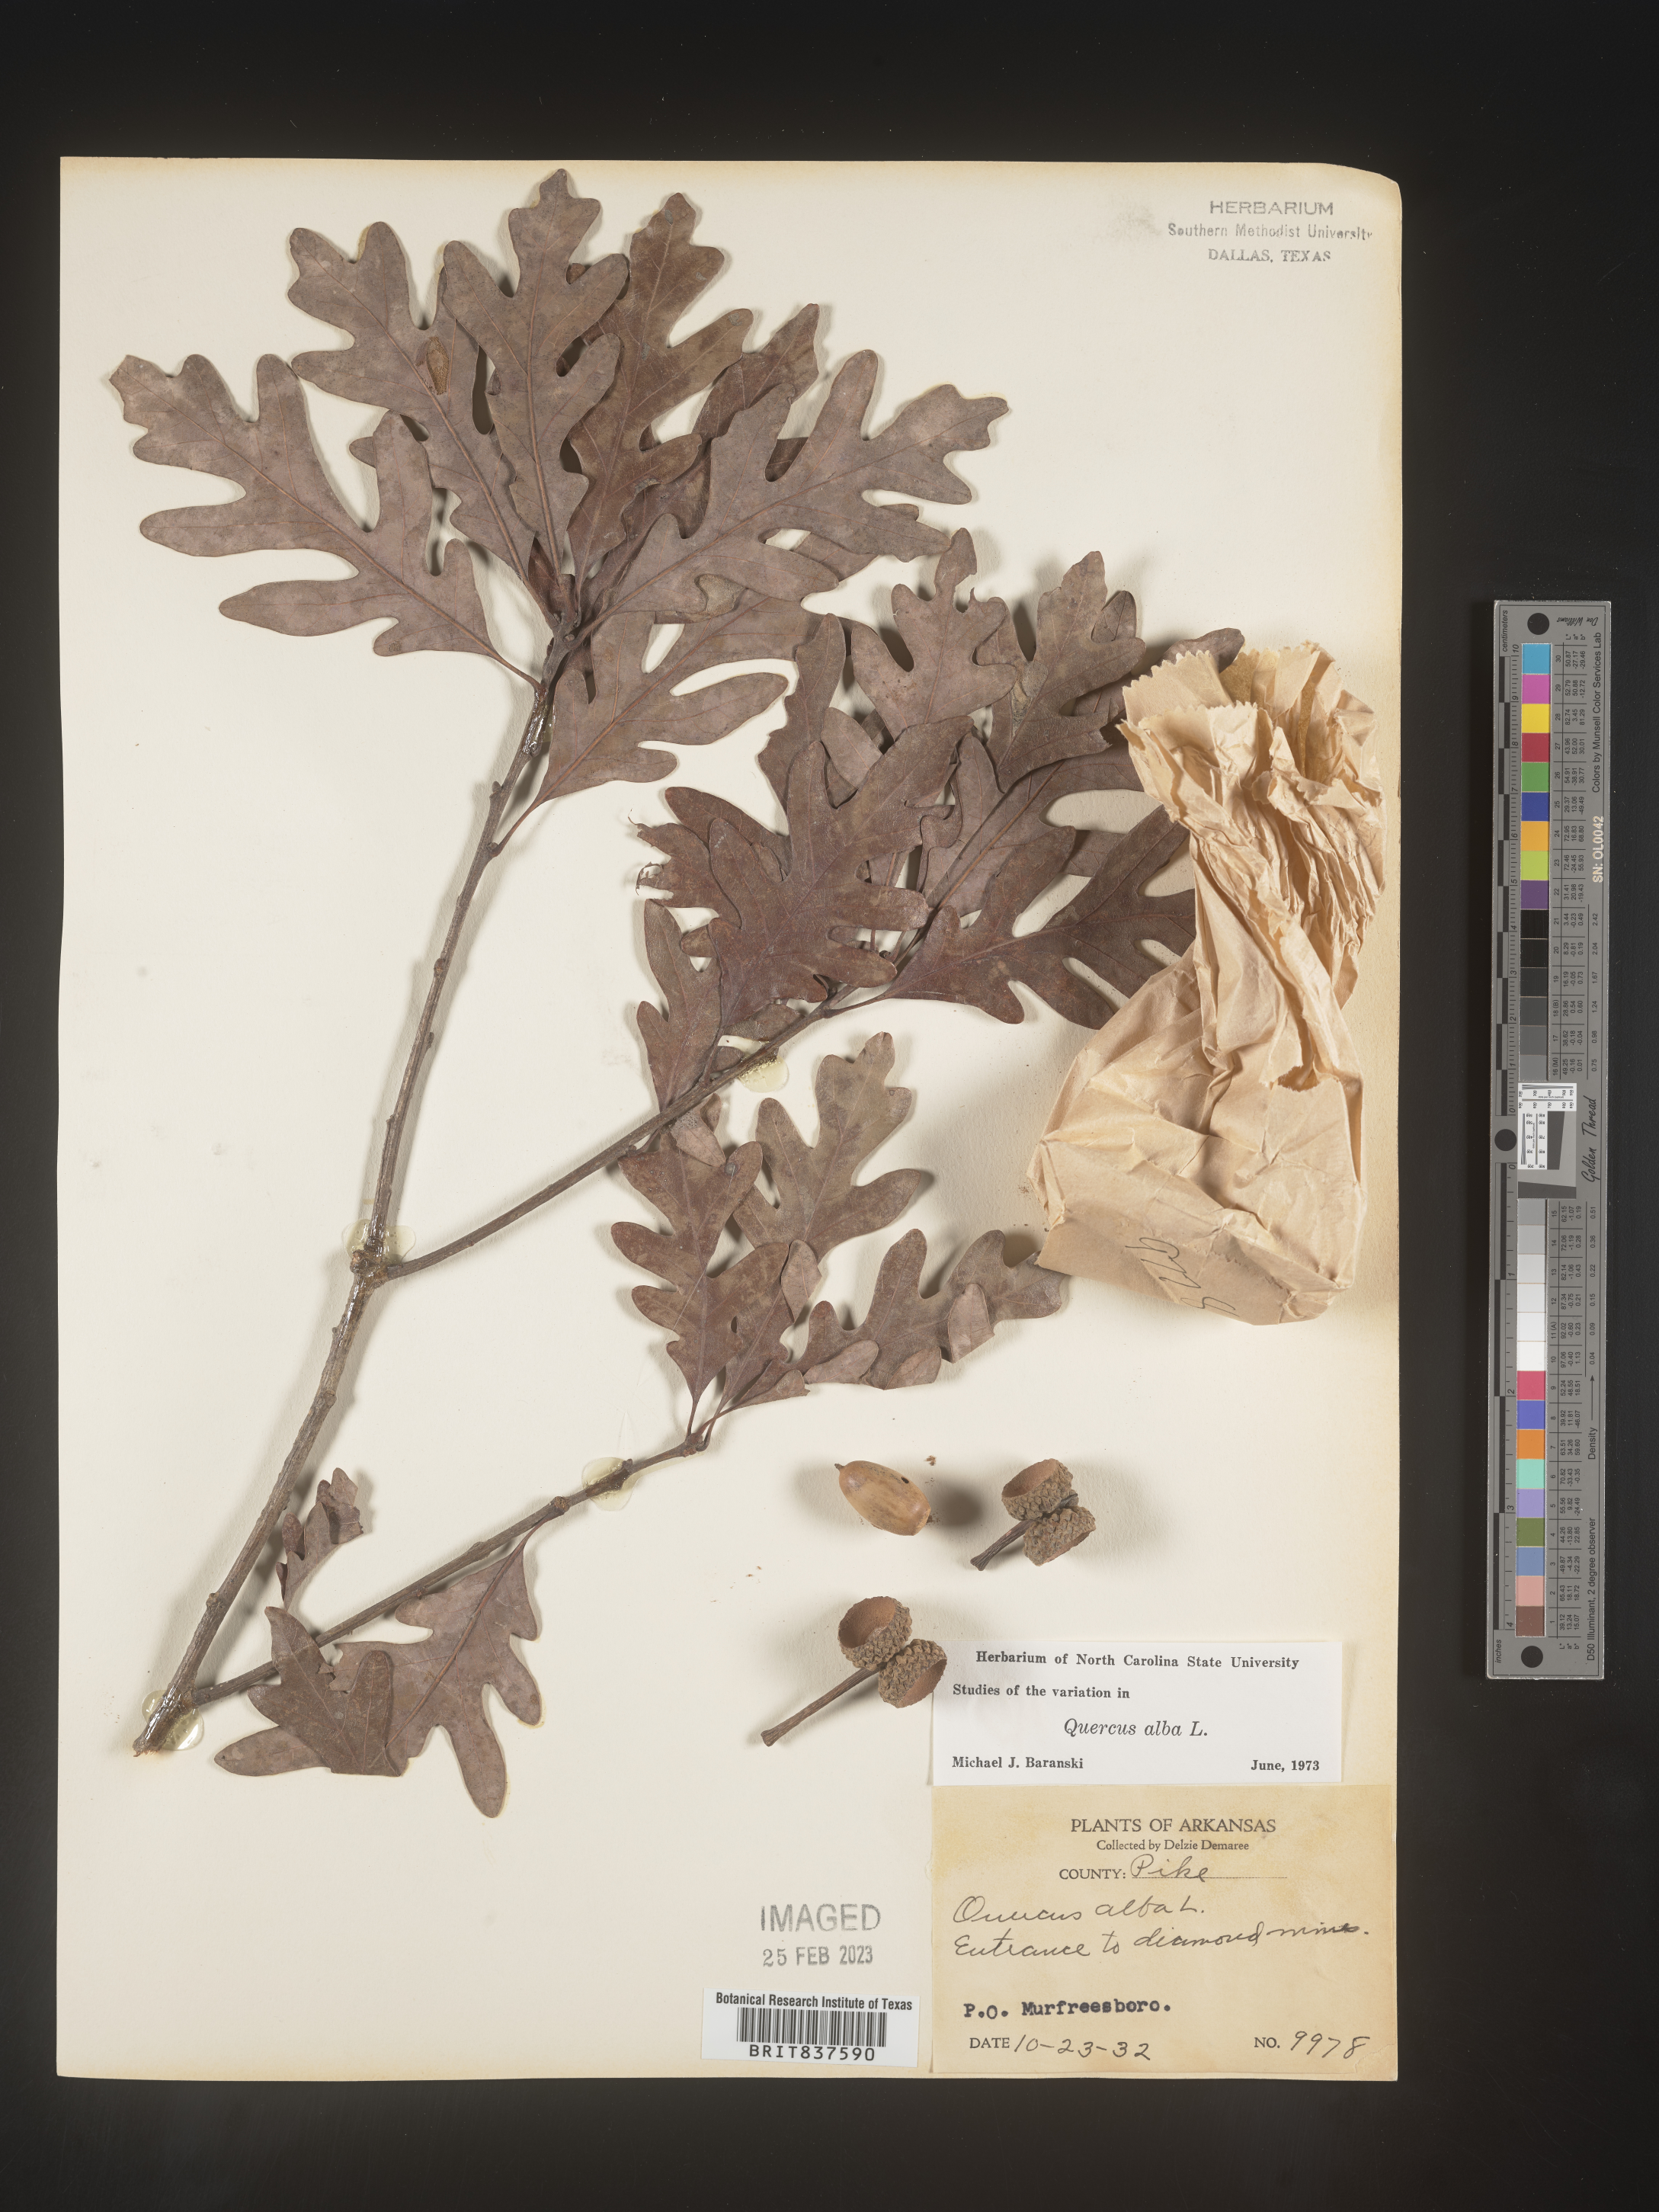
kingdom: Plantae
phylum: Tracheophyta
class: Magnoliopsida
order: Fagales
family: Fagaceae
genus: Quercus
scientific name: Quercus alba
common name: White oak
